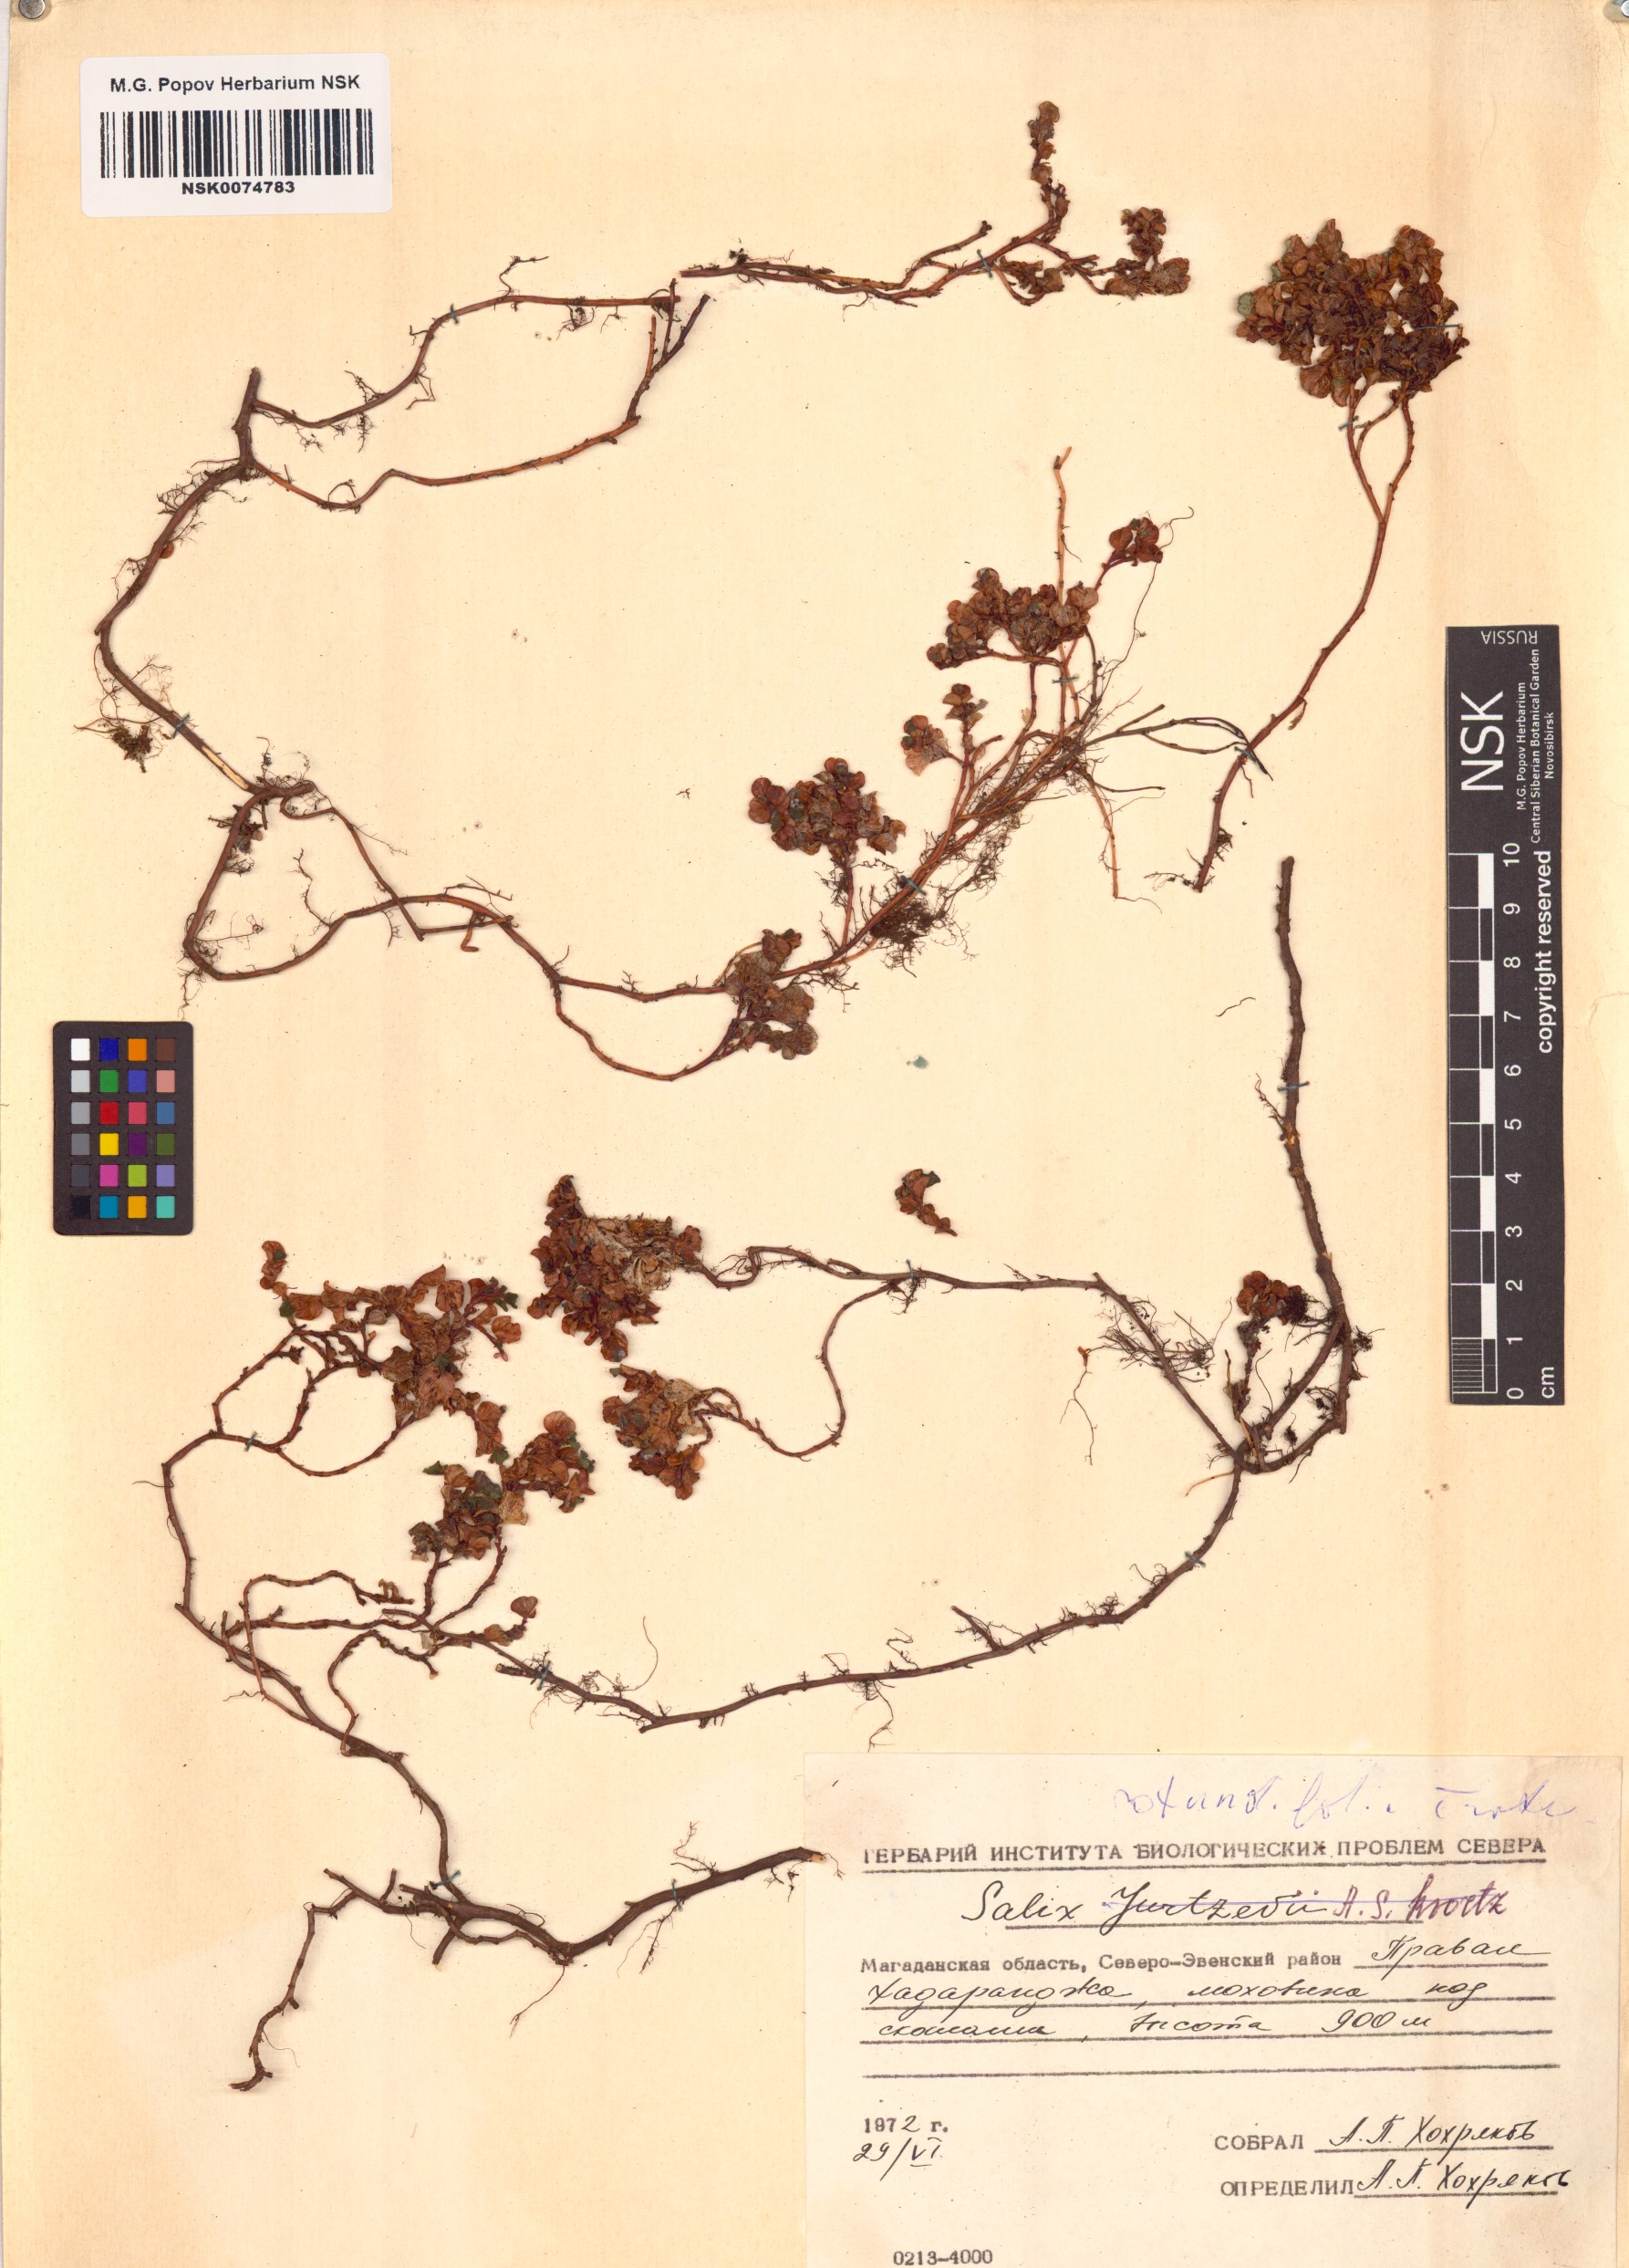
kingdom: Plantae
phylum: Tracheophyta
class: Magnoliopsida
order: Malpighiales
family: Salicaceae
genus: Salix
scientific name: Salix rotundifolia
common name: Least willow
